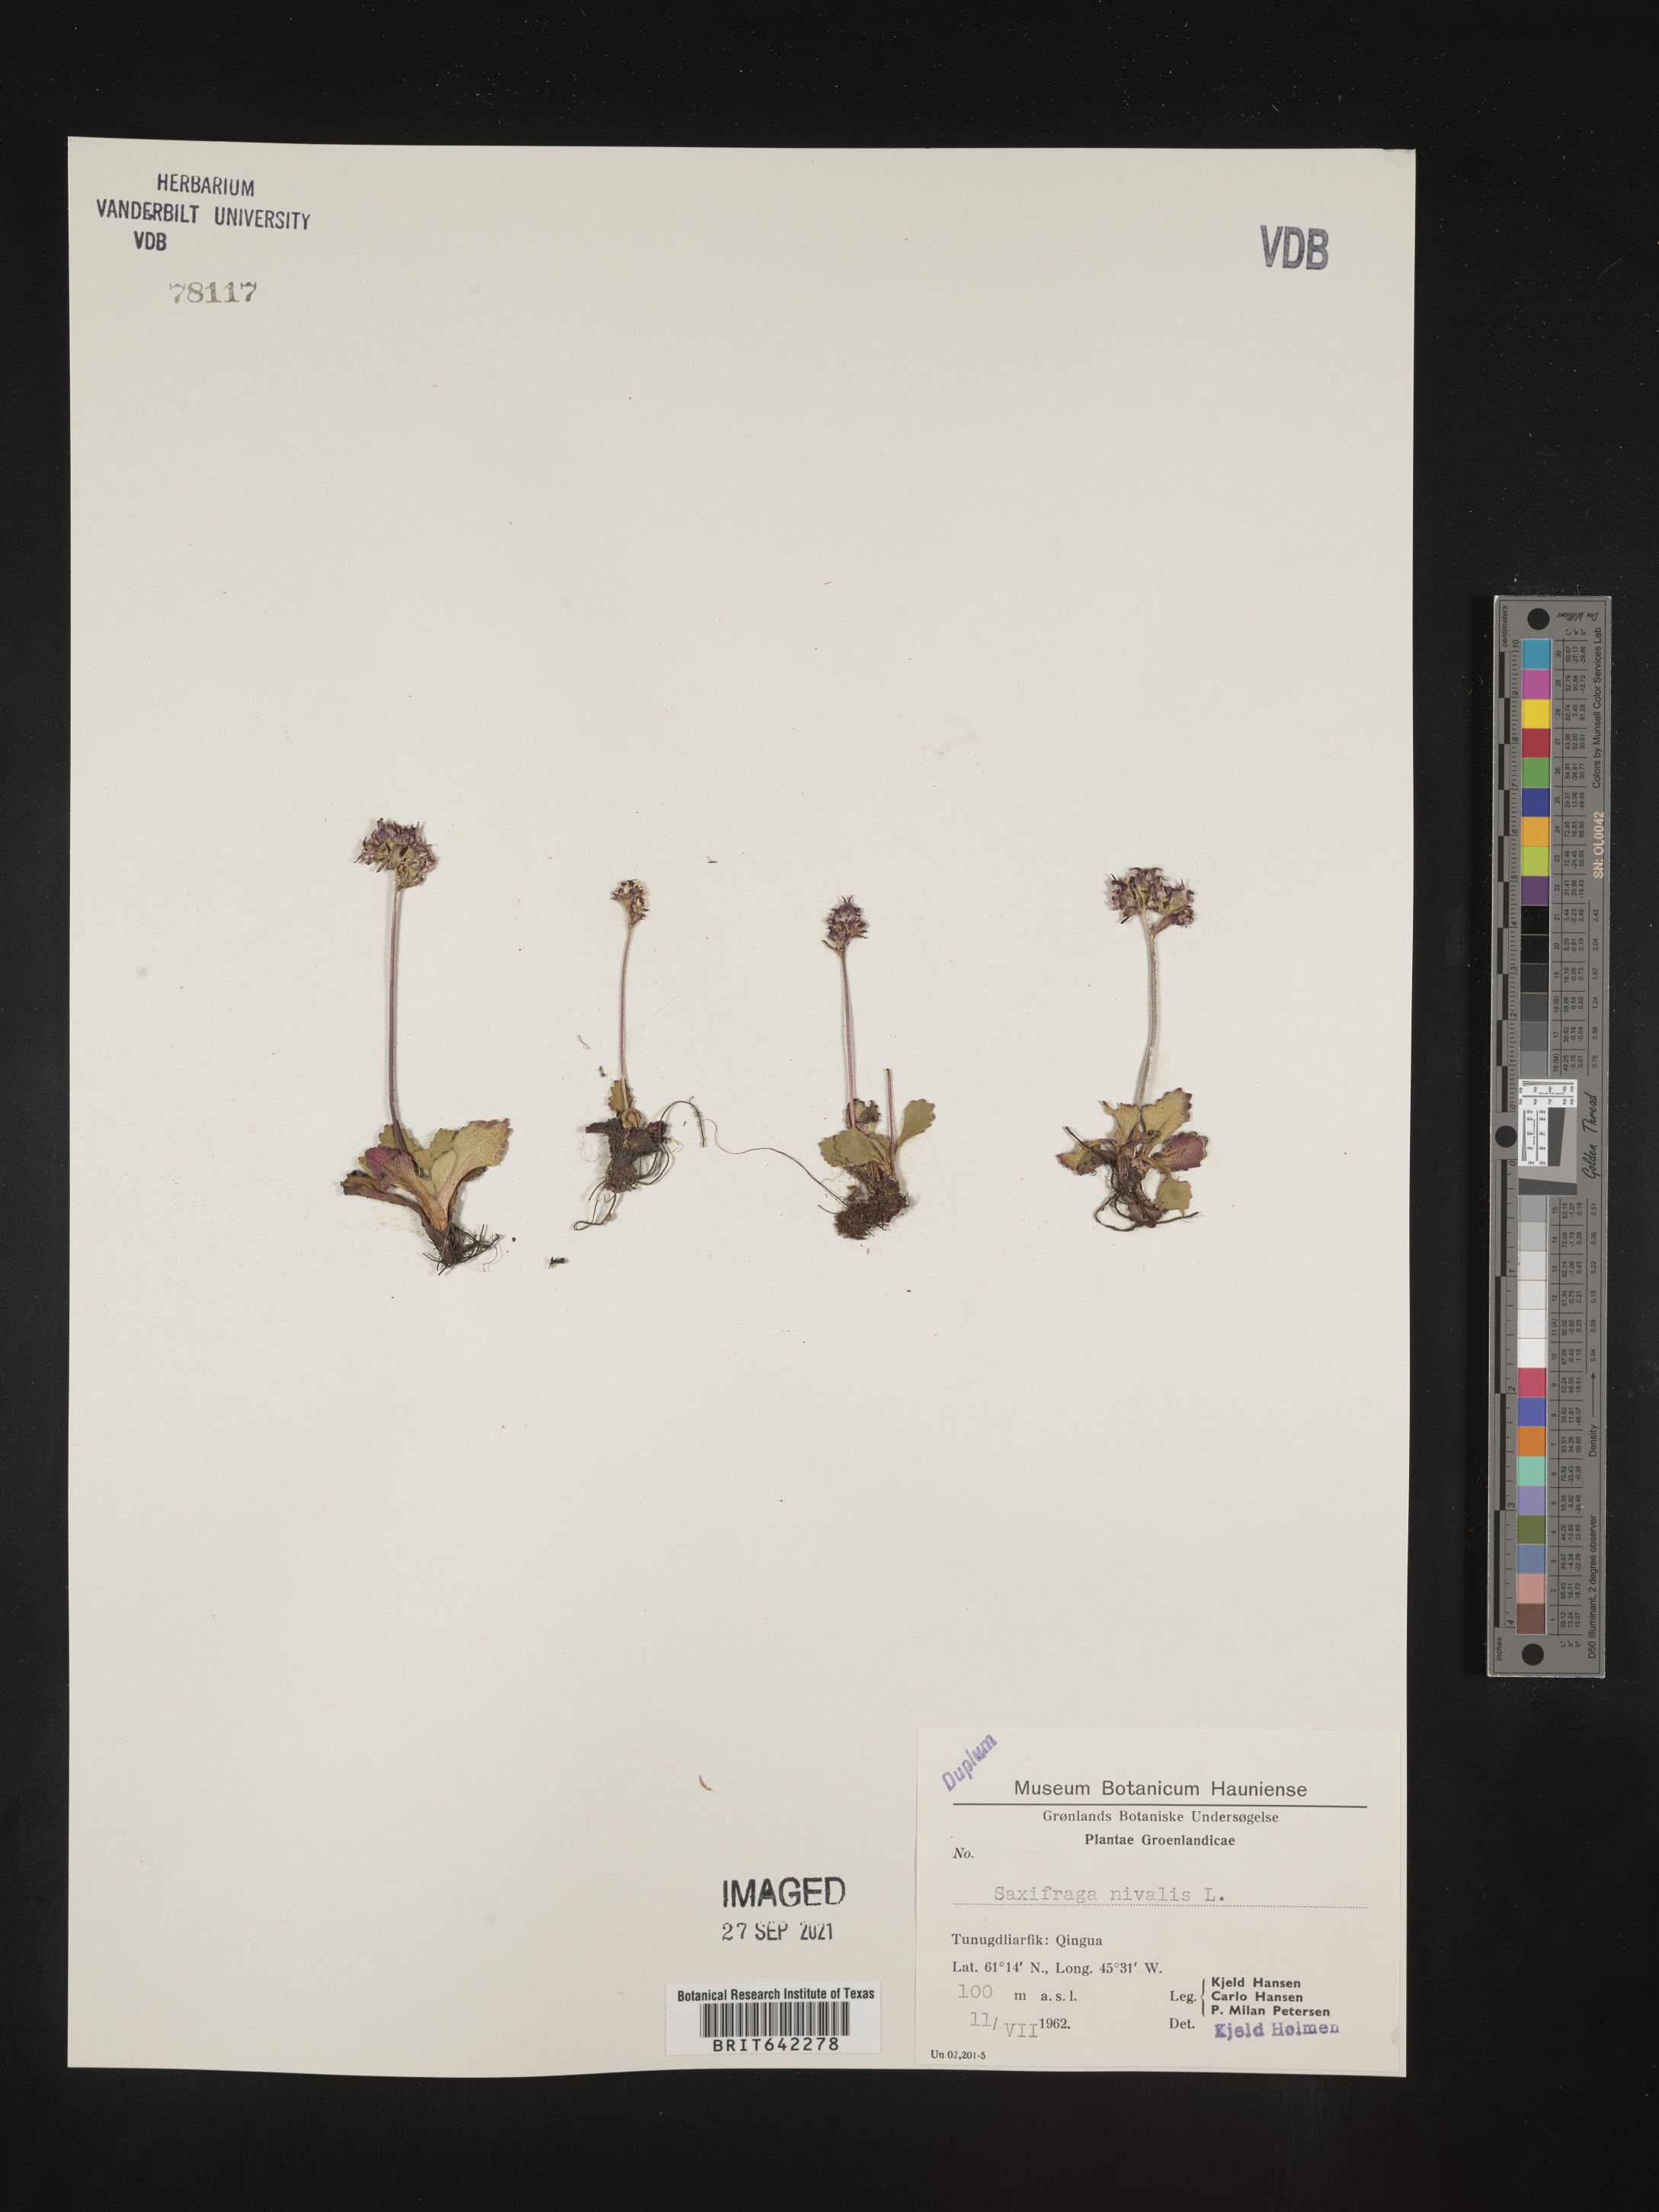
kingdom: Plantae
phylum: Tracheophyta
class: Magnoliopsida
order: Saxifragales
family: Saxifragaceae
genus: Saxifraga
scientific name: Saxifraga
